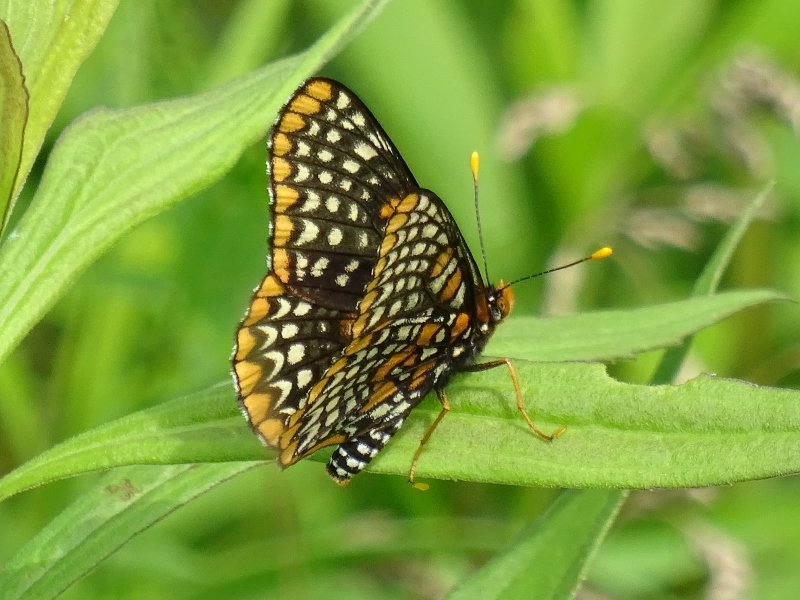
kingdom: Animalia
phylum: Arthropoda
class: Insecta
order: Lepidoptera
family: Nymphalidae
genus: Euphydryas
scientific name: Euphydryas phaeton
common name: Baltimore Checkerspot
